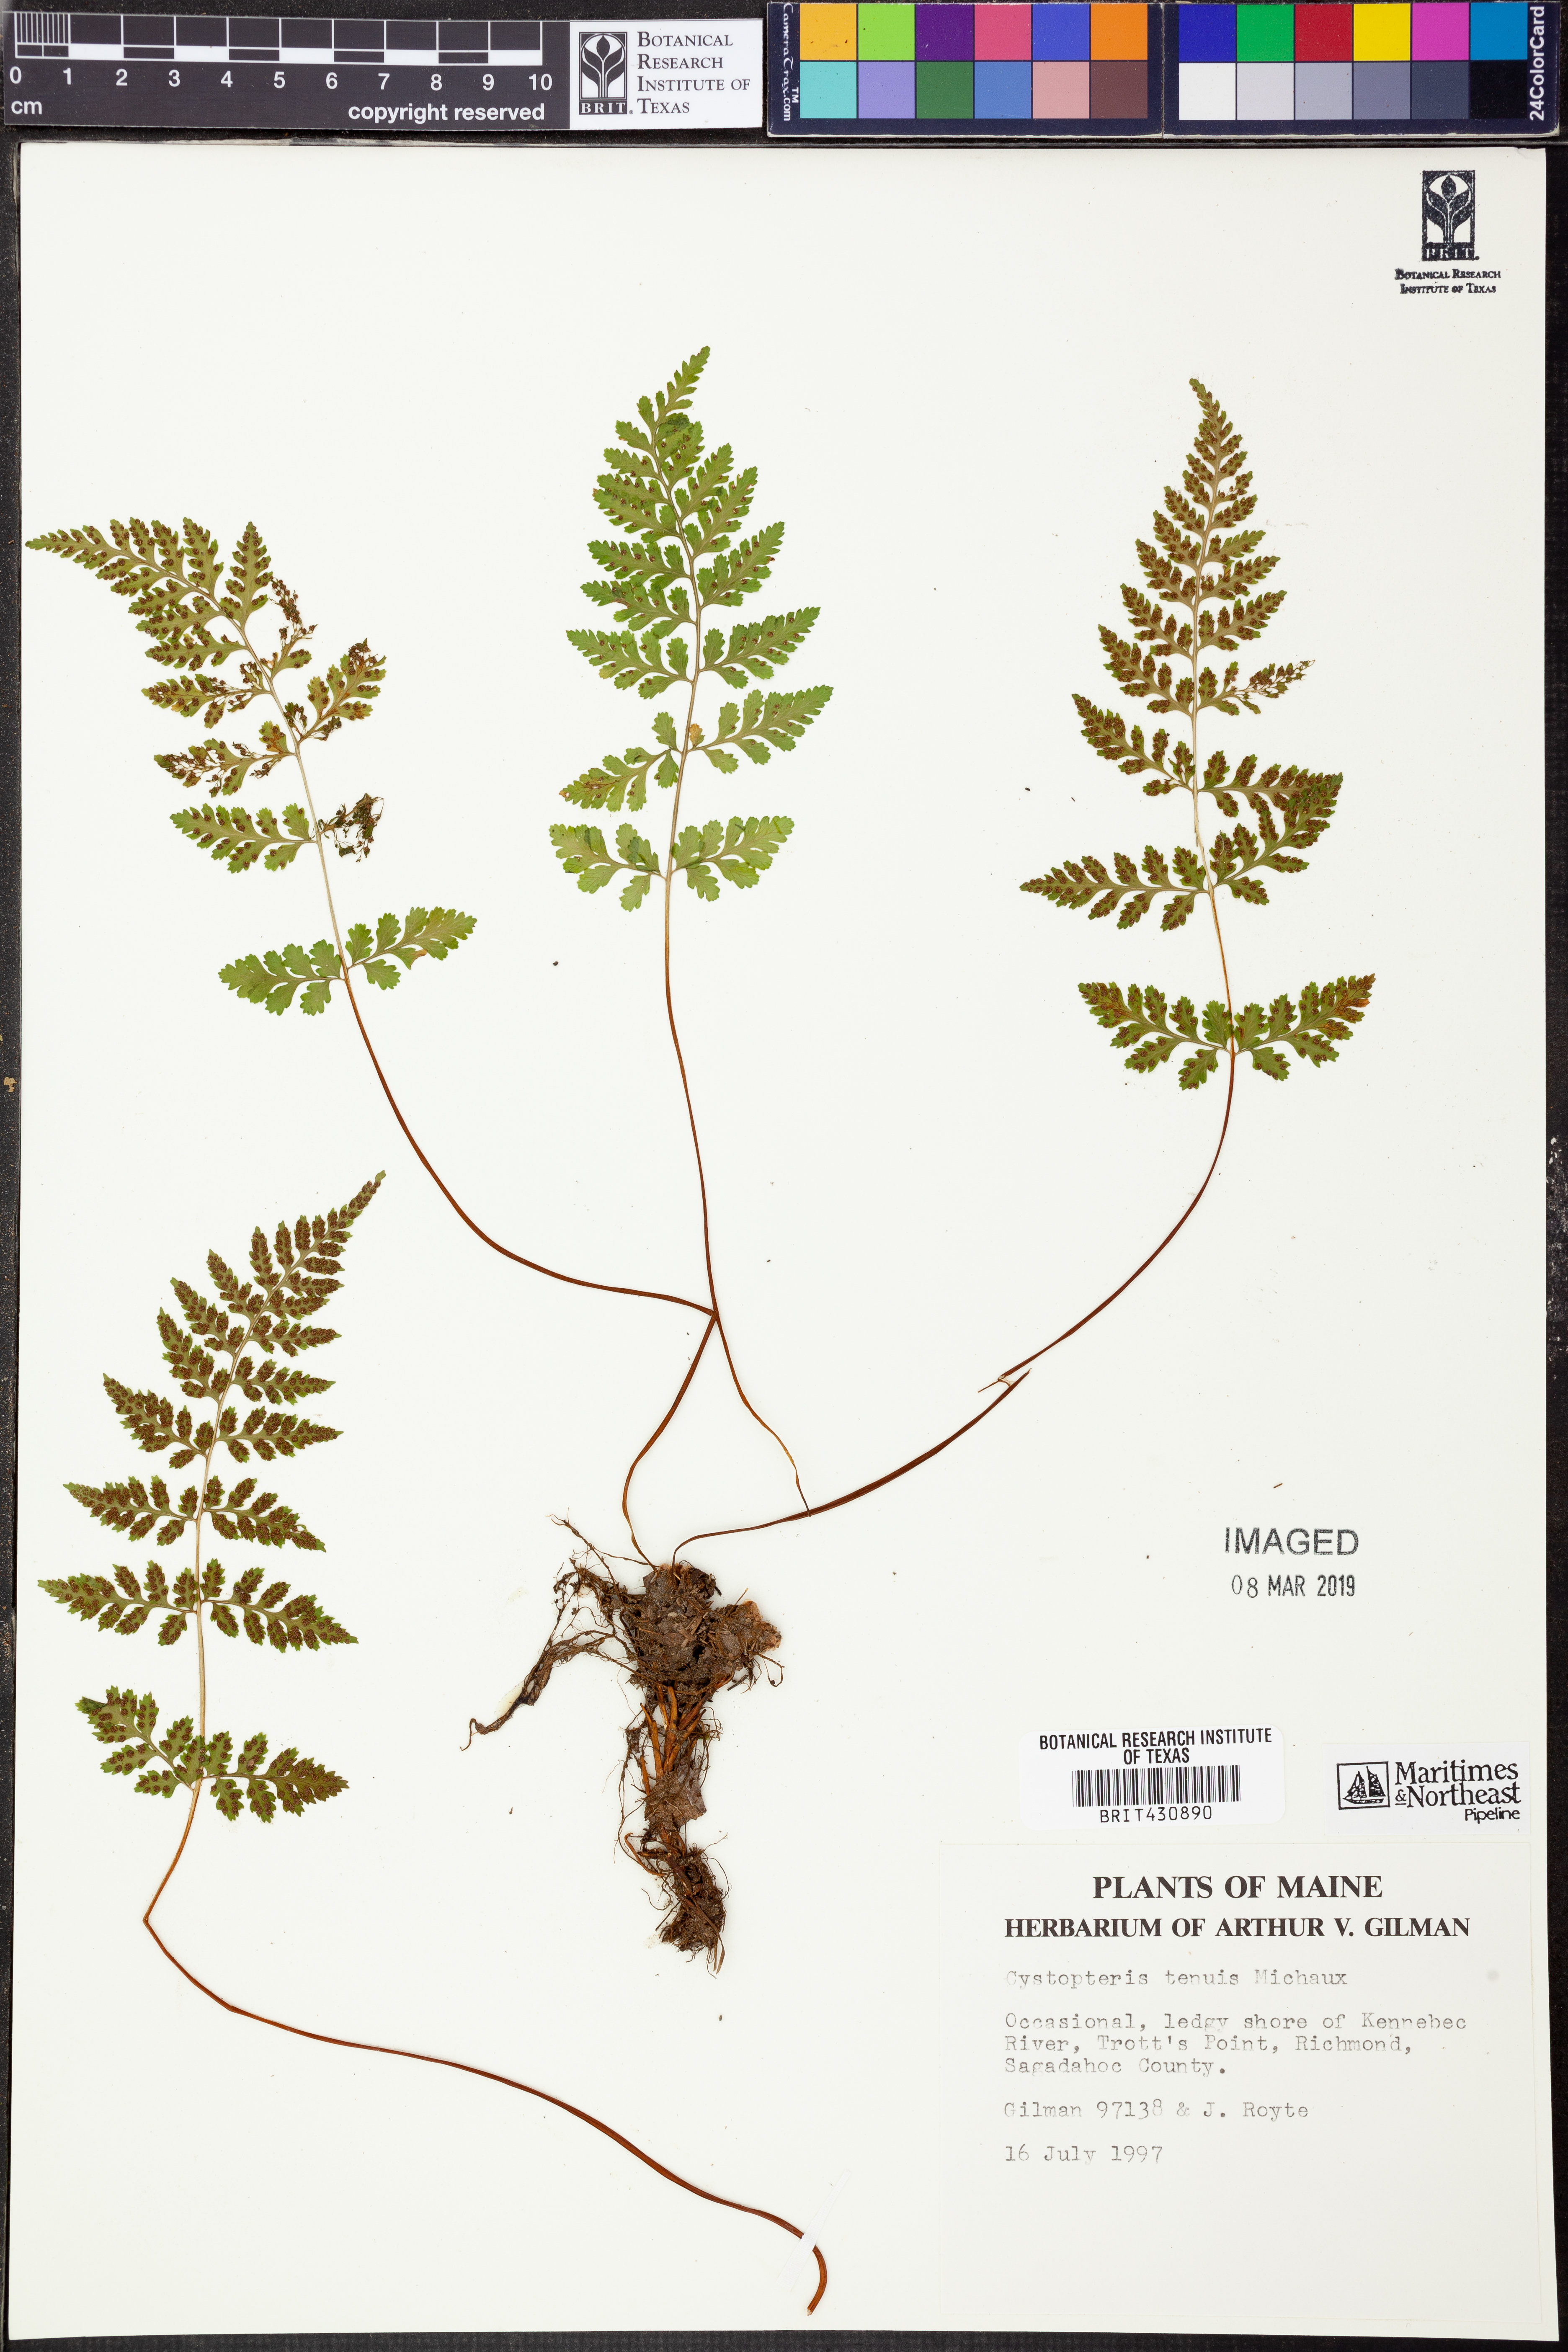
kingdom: Plantae
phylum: Tracheophyta
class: Polypodiopsida
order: Polypodiales
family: Cystopteridaceae
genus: Cystopteris
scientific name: Cystopteris tenuis
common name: Mackay's brittle fern
